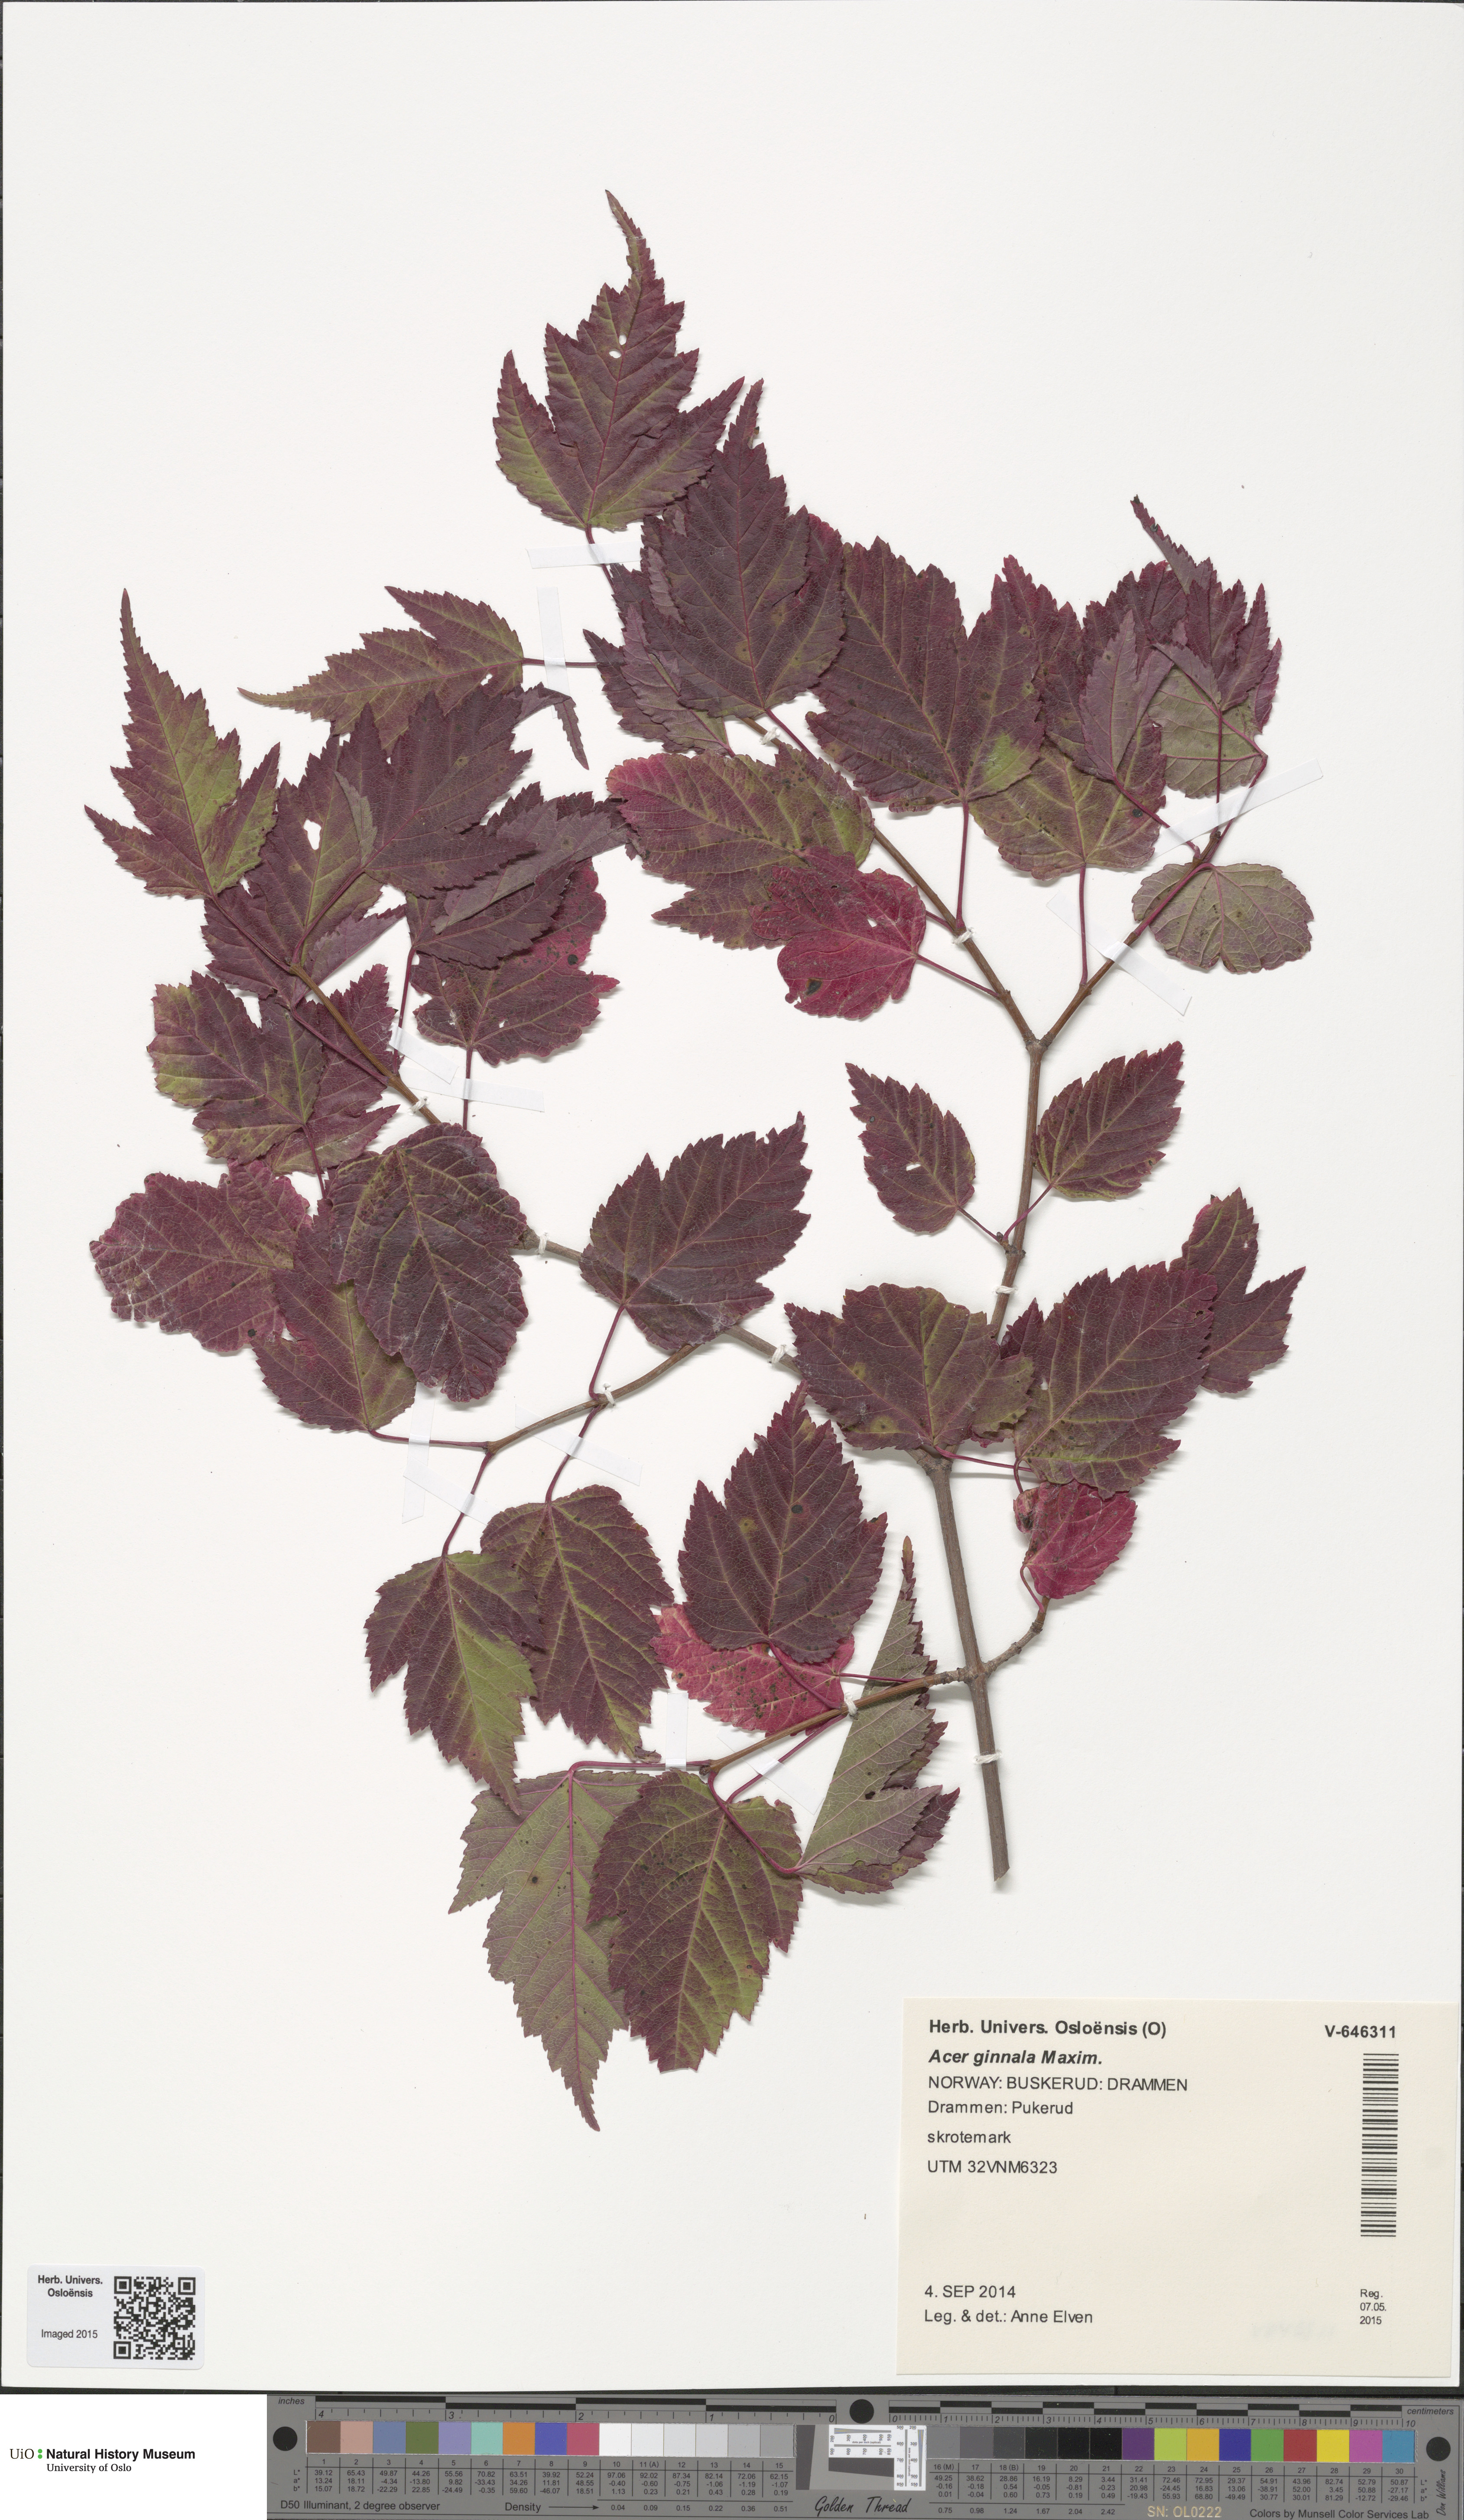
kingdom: Plantae
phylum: Tracheophyta
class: Magnoliopsida
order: Sapindales
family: Sapindaceae
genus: Acer
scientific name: Acer tataricum
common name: Tartar maple
